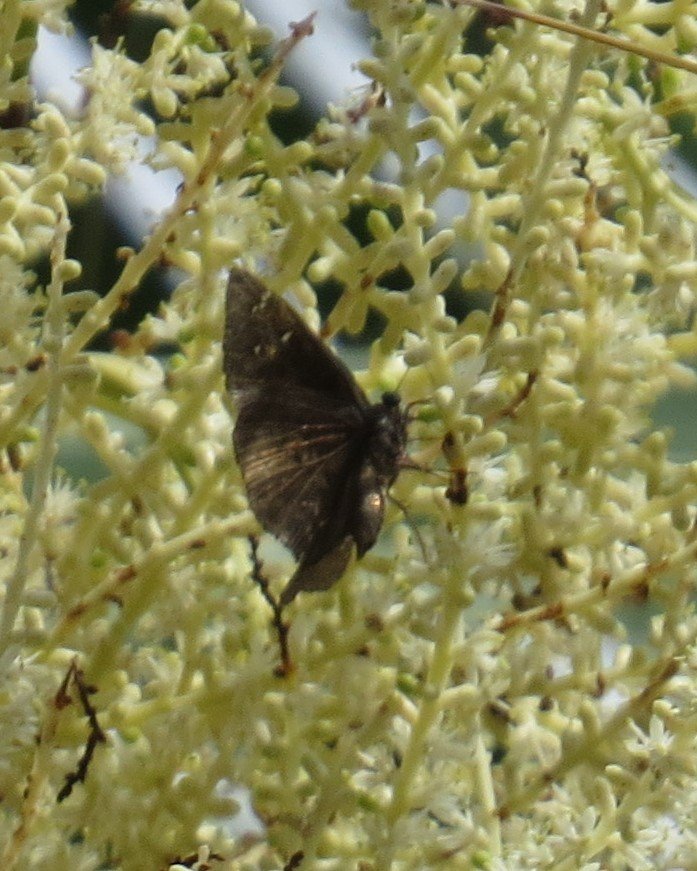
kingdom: Animalia
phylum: Arthropoda
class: Insecta
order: Lepidoptera
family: Hesperiidae
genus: Gesta
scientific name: Gesta
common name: Horace's Duskywing
